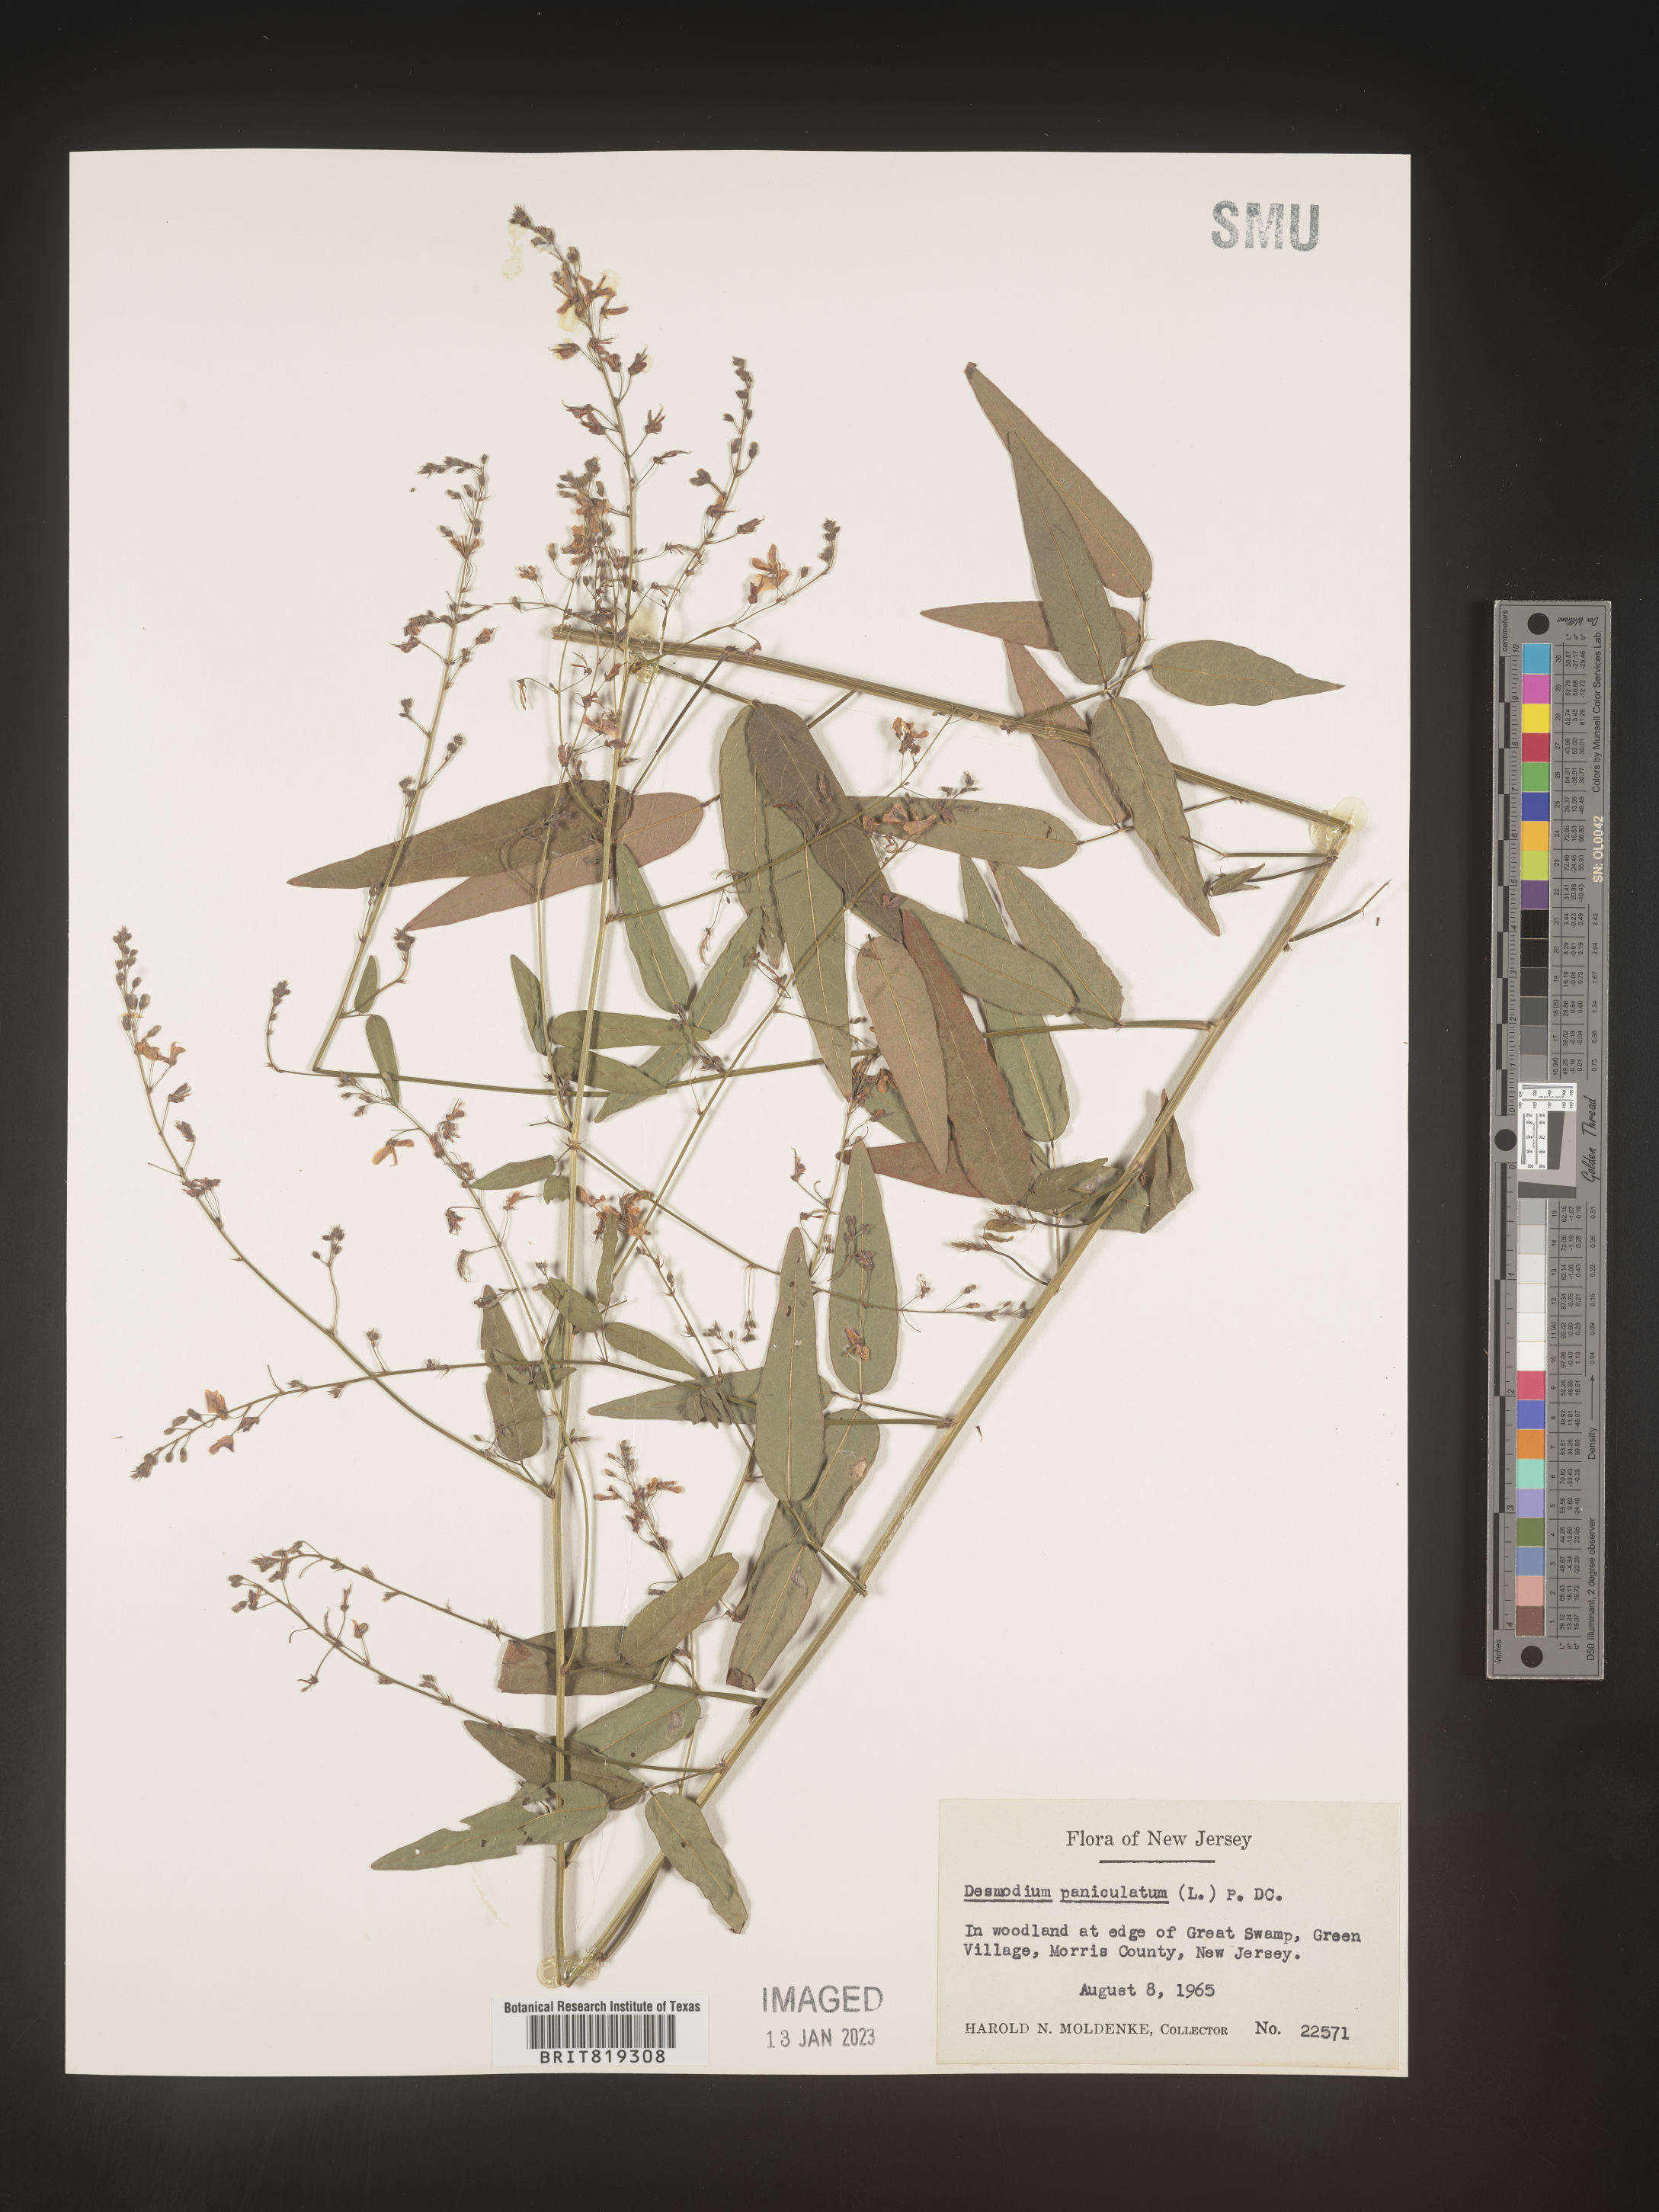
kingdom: Plantae
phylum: Tracheophyta
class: Magnoliopsida
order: Fabales
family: Fabaceae
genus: Desmodium
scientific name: Desmodium paniculatum
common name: Panicled tick-clover
